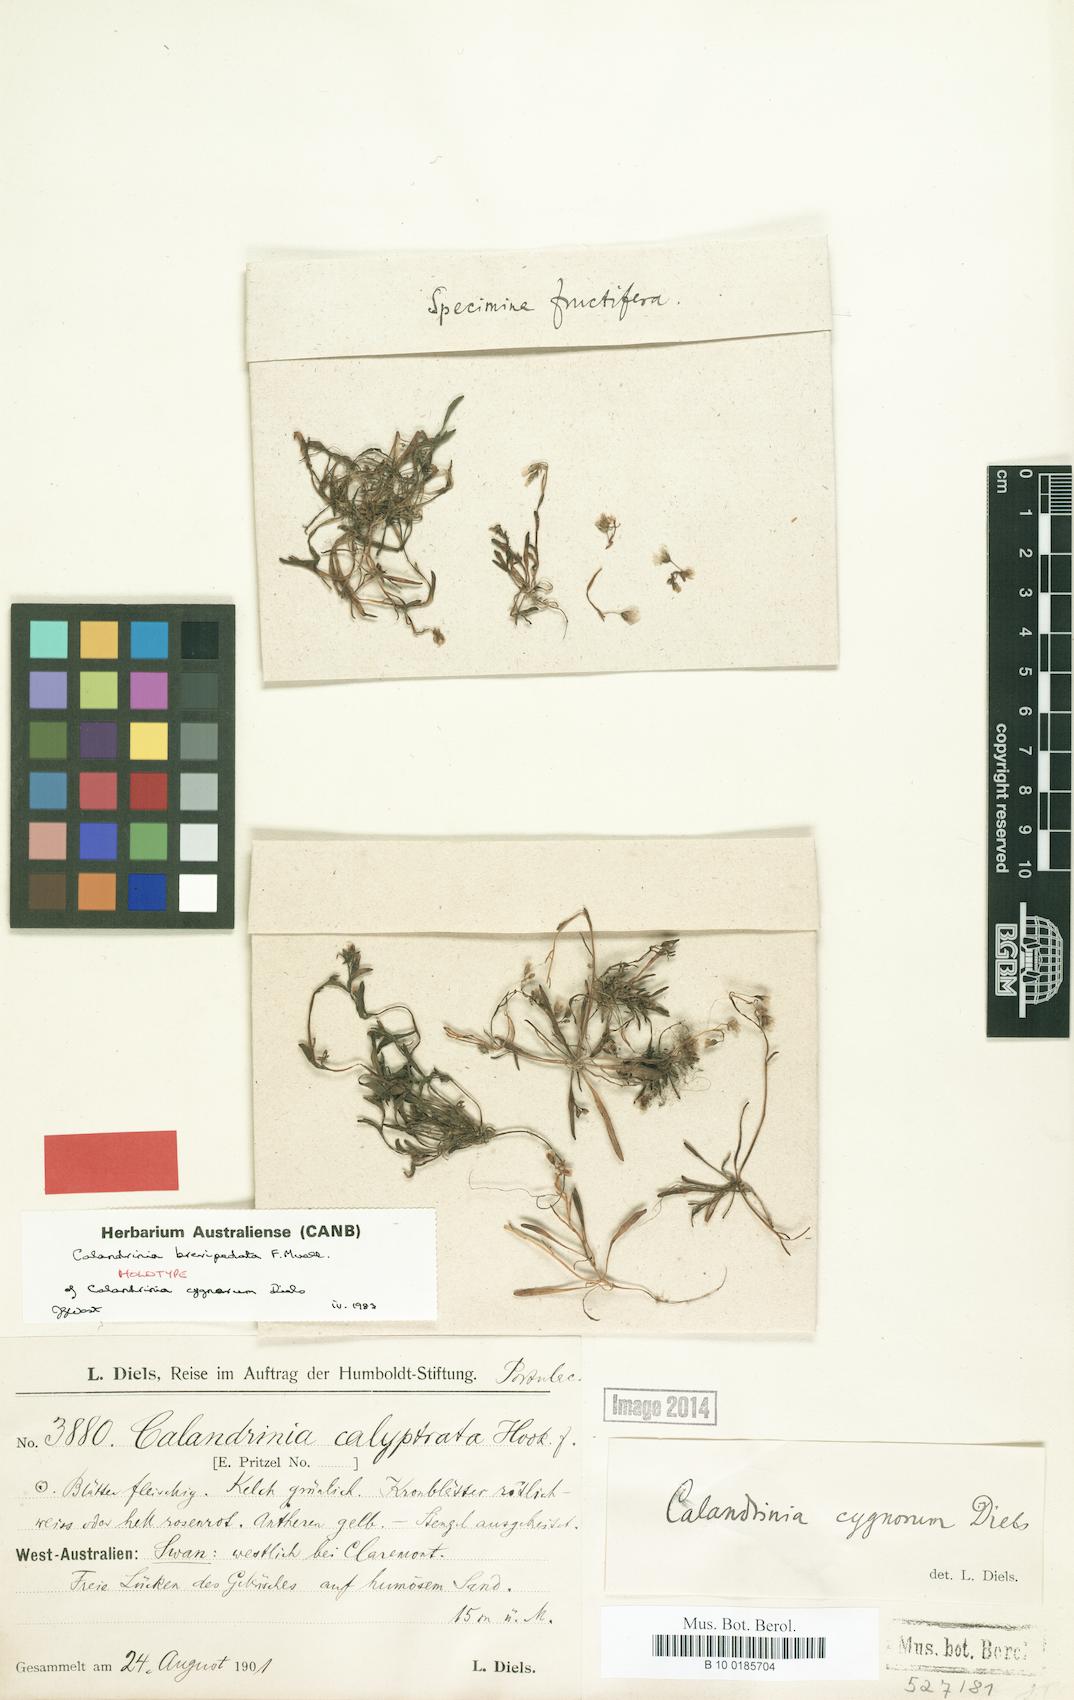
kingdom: Plantae
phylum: Tracheophyta
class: Magnoliopsida
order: Caryophyllales
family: Montiaceae
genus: Rumicastrum
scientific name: Rumicastrum brevipedatum
